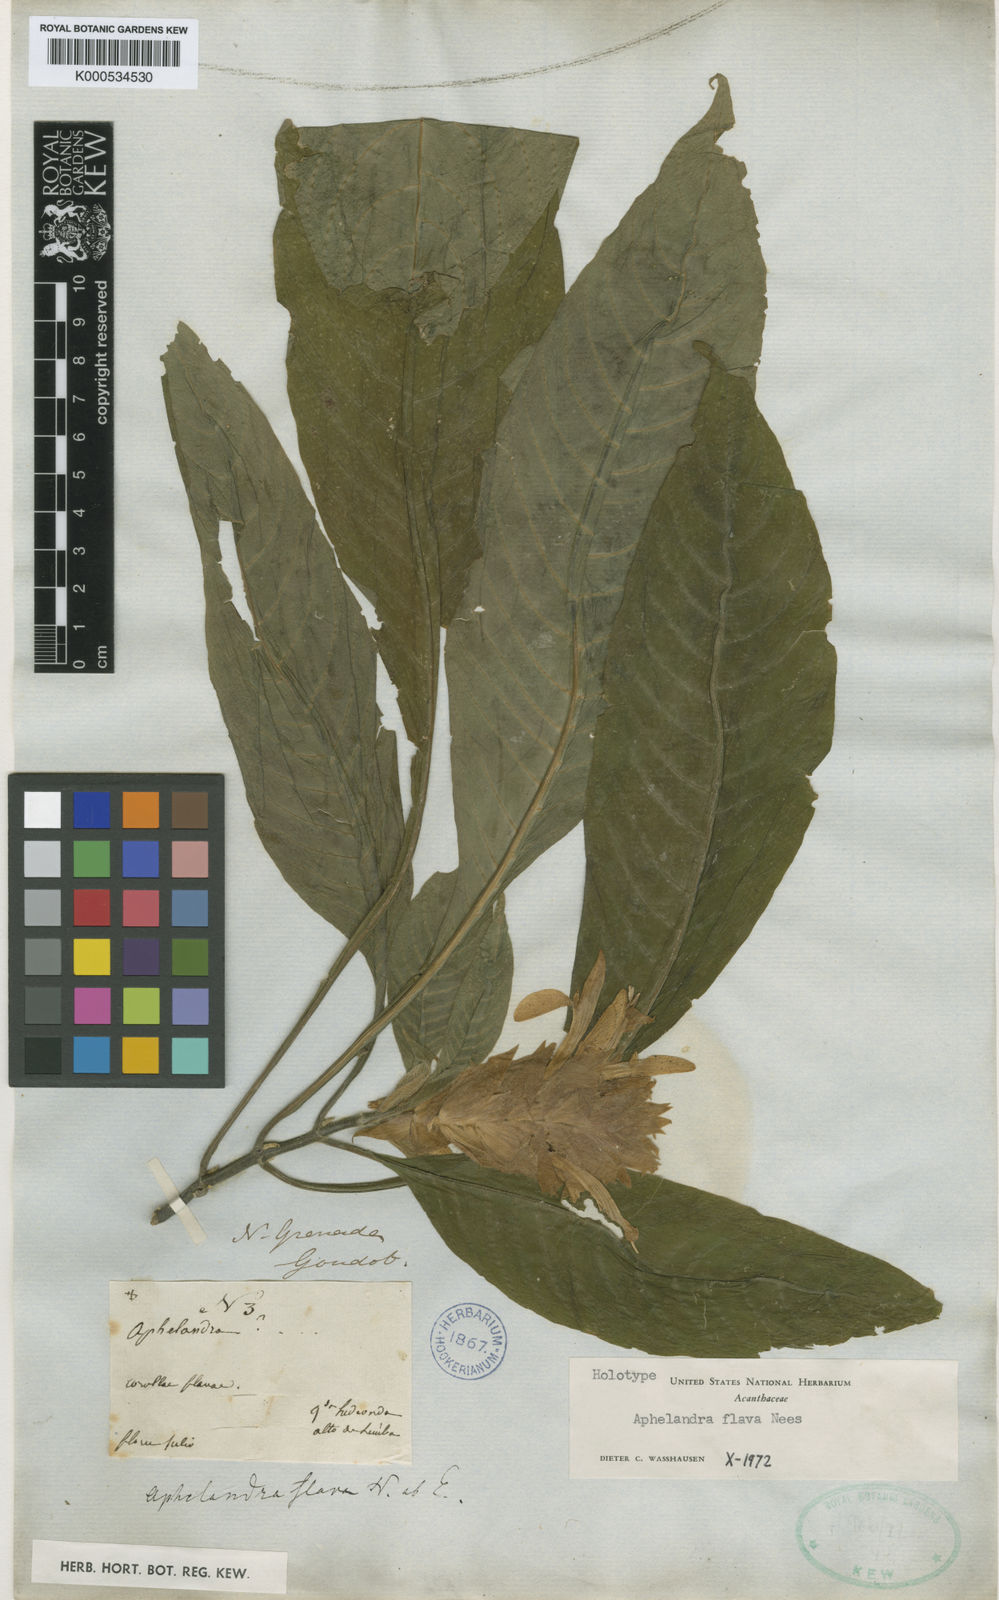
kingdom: Plantae
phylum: Tracheophyta
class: Magnoliopsida
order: Lamiales
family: Acanthaceae
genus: Aphelandra
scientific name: Aphelandra flava
